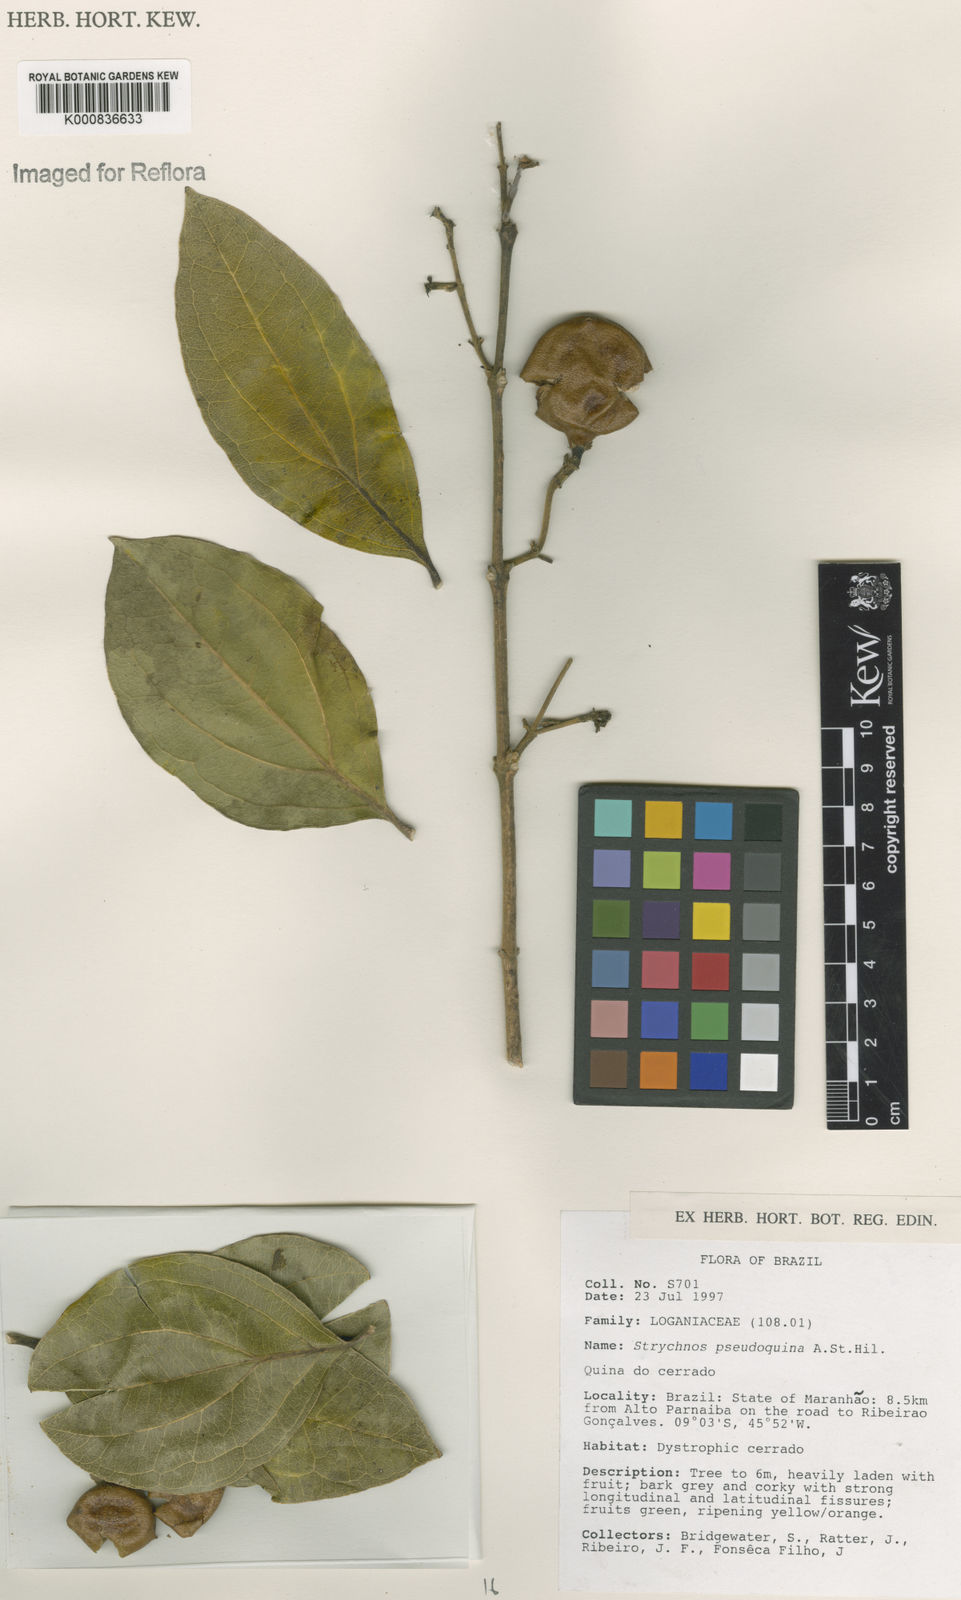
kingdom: Plantae
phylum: Tracheophyta
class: Magnoliopsida
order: Gentianales
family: Loganiaceae
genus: Strychnos
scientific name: Strychnos pseudoquina
